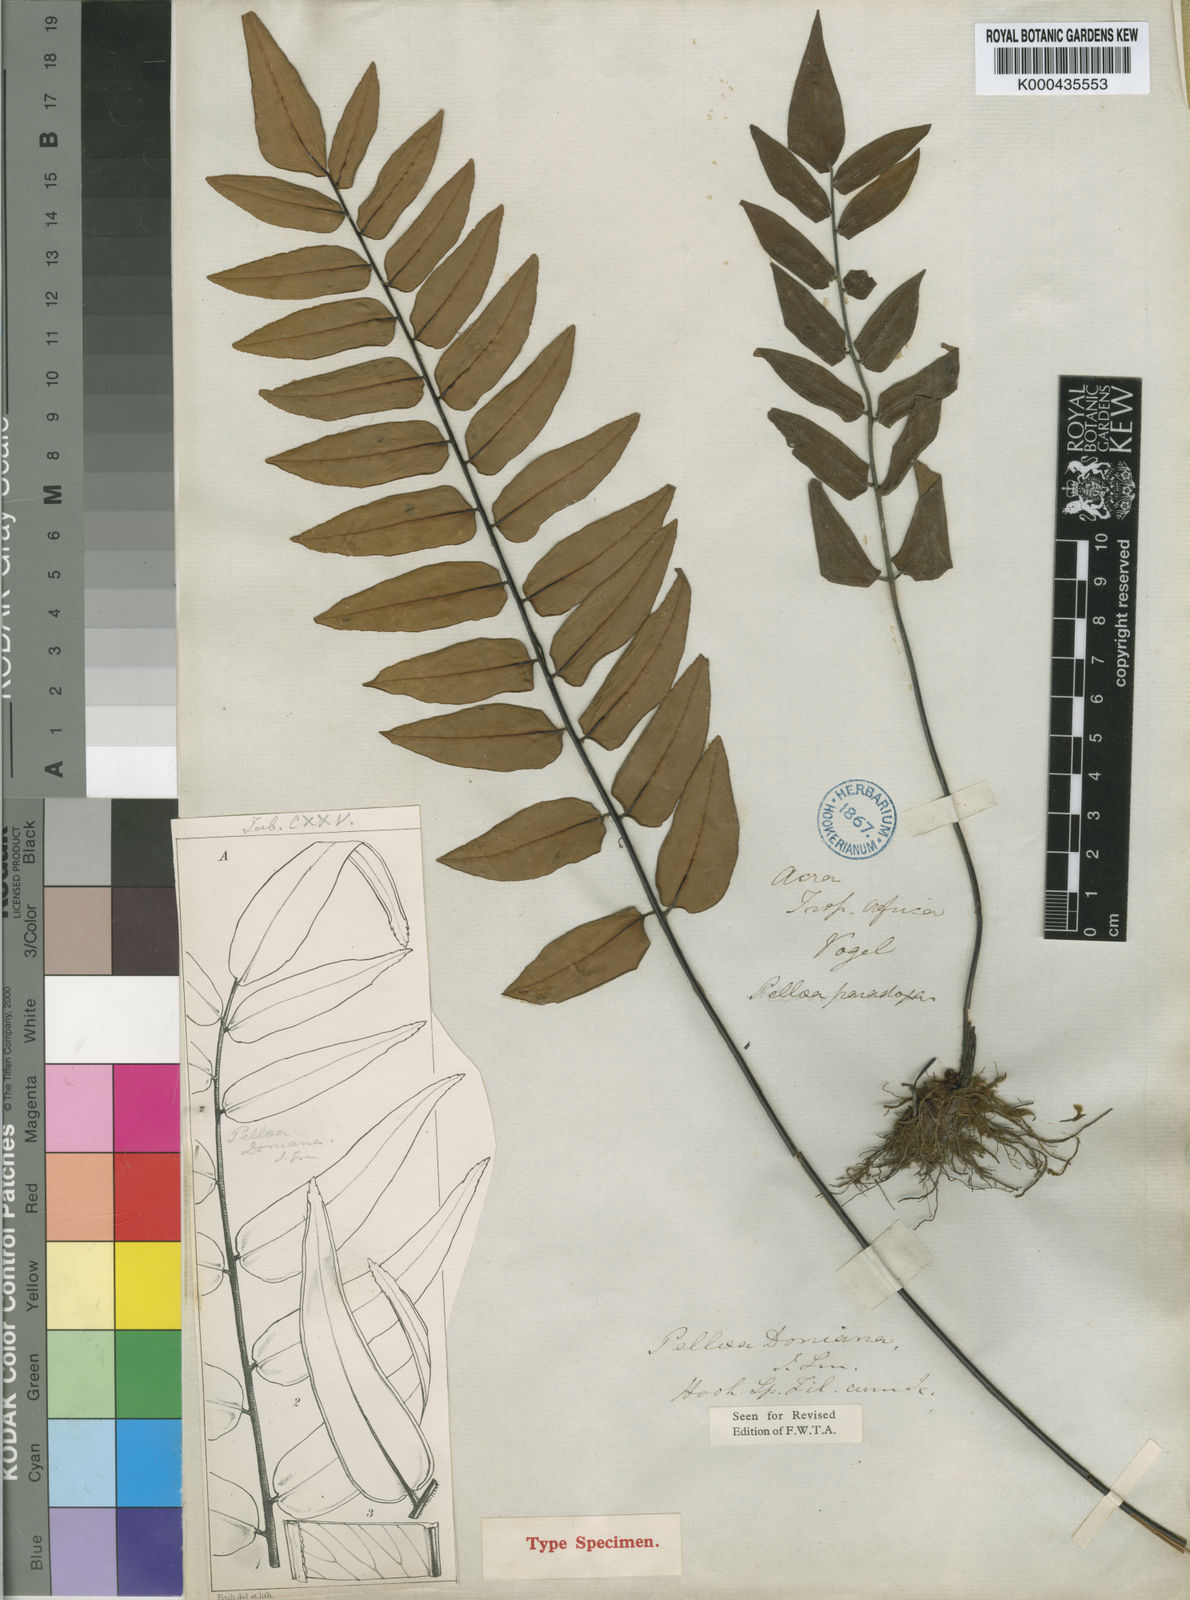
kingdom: Plantae
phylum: Tracheophyta
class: Polypodiopsida
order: Polypodiales
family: Pteridaceae
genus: Pellaea
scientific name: Pellaea doniana
